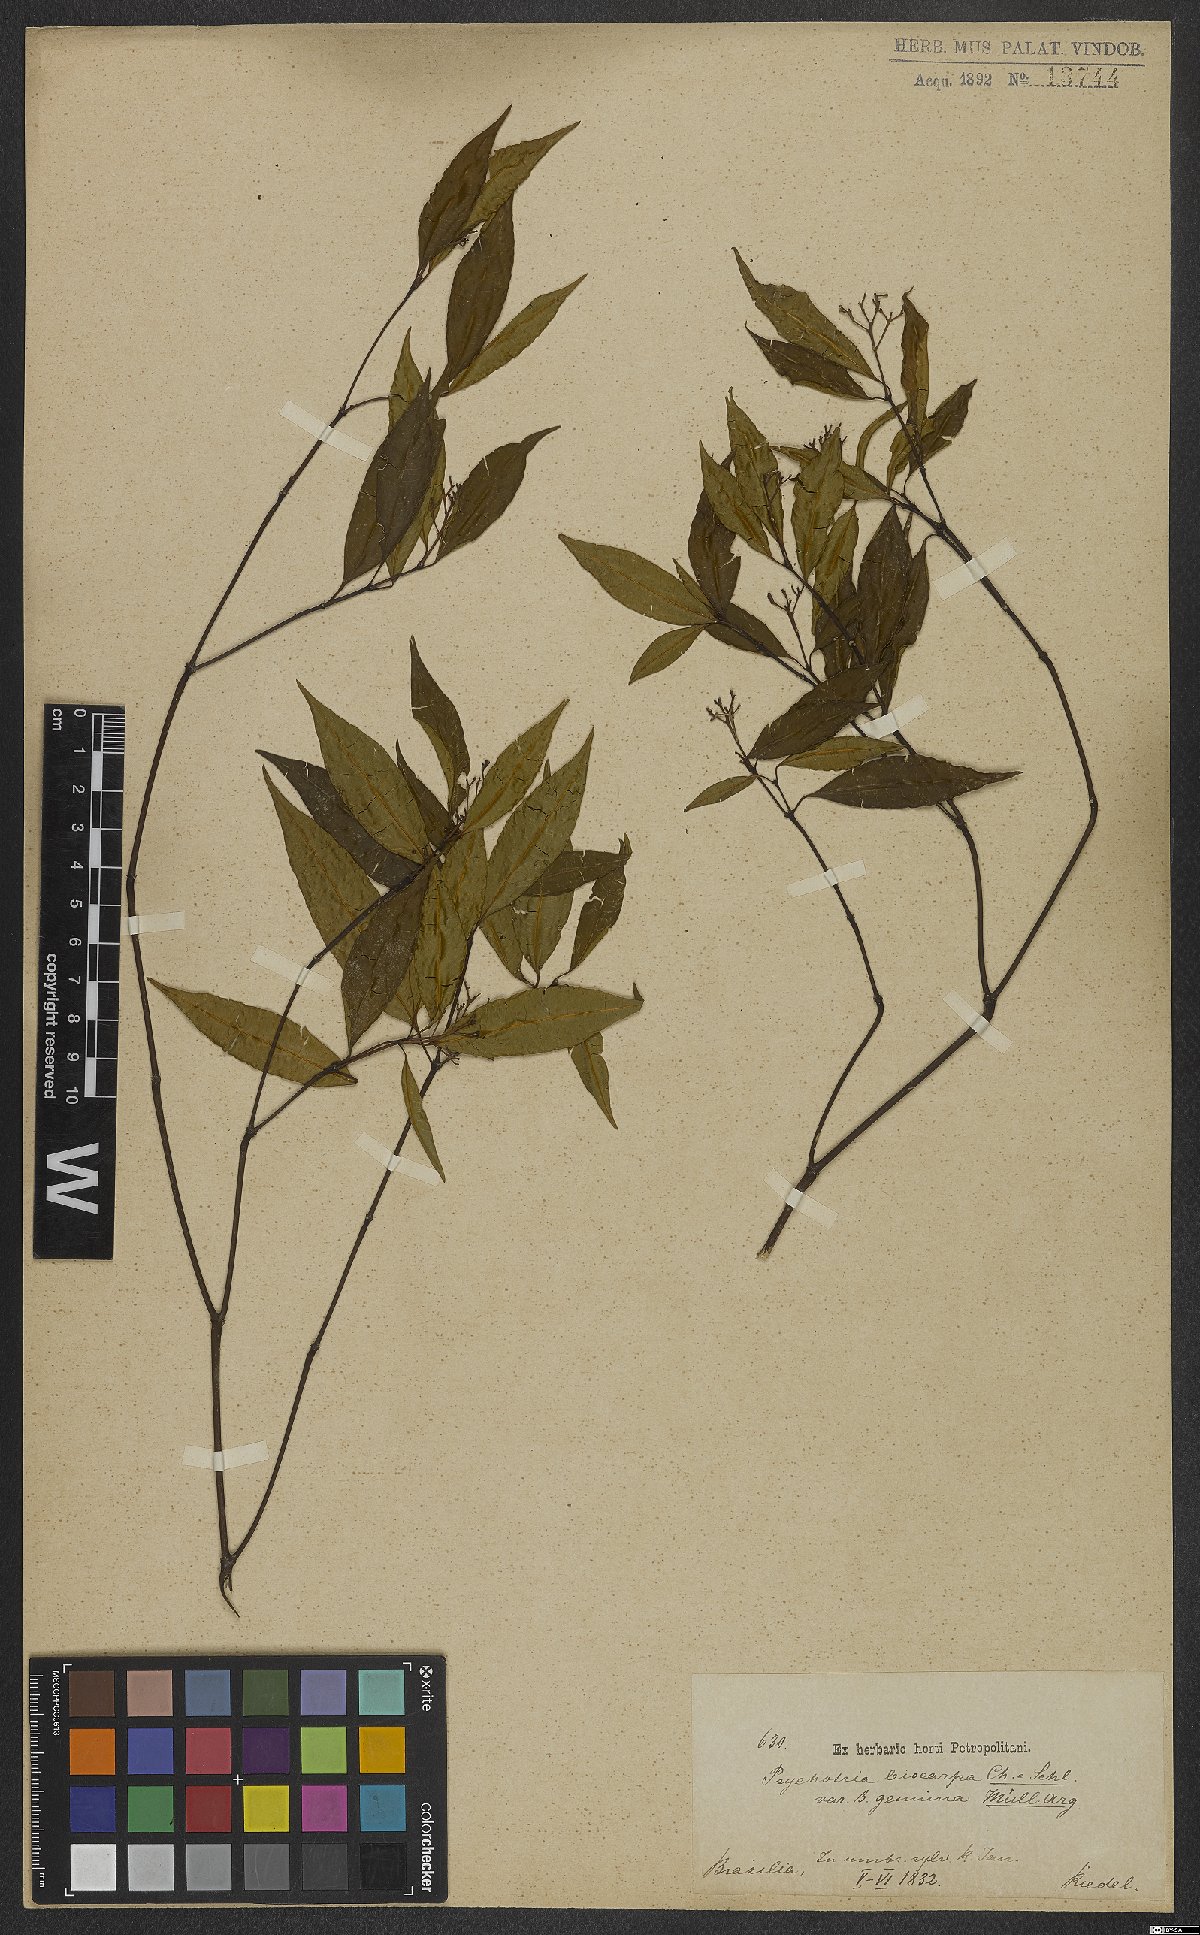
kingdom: Plantae
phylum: Tracheophyta
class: Magnoliopsida
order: Gentianales
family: Rubiaceae
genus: Psychotria
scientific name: Psychotria leiocarpa
